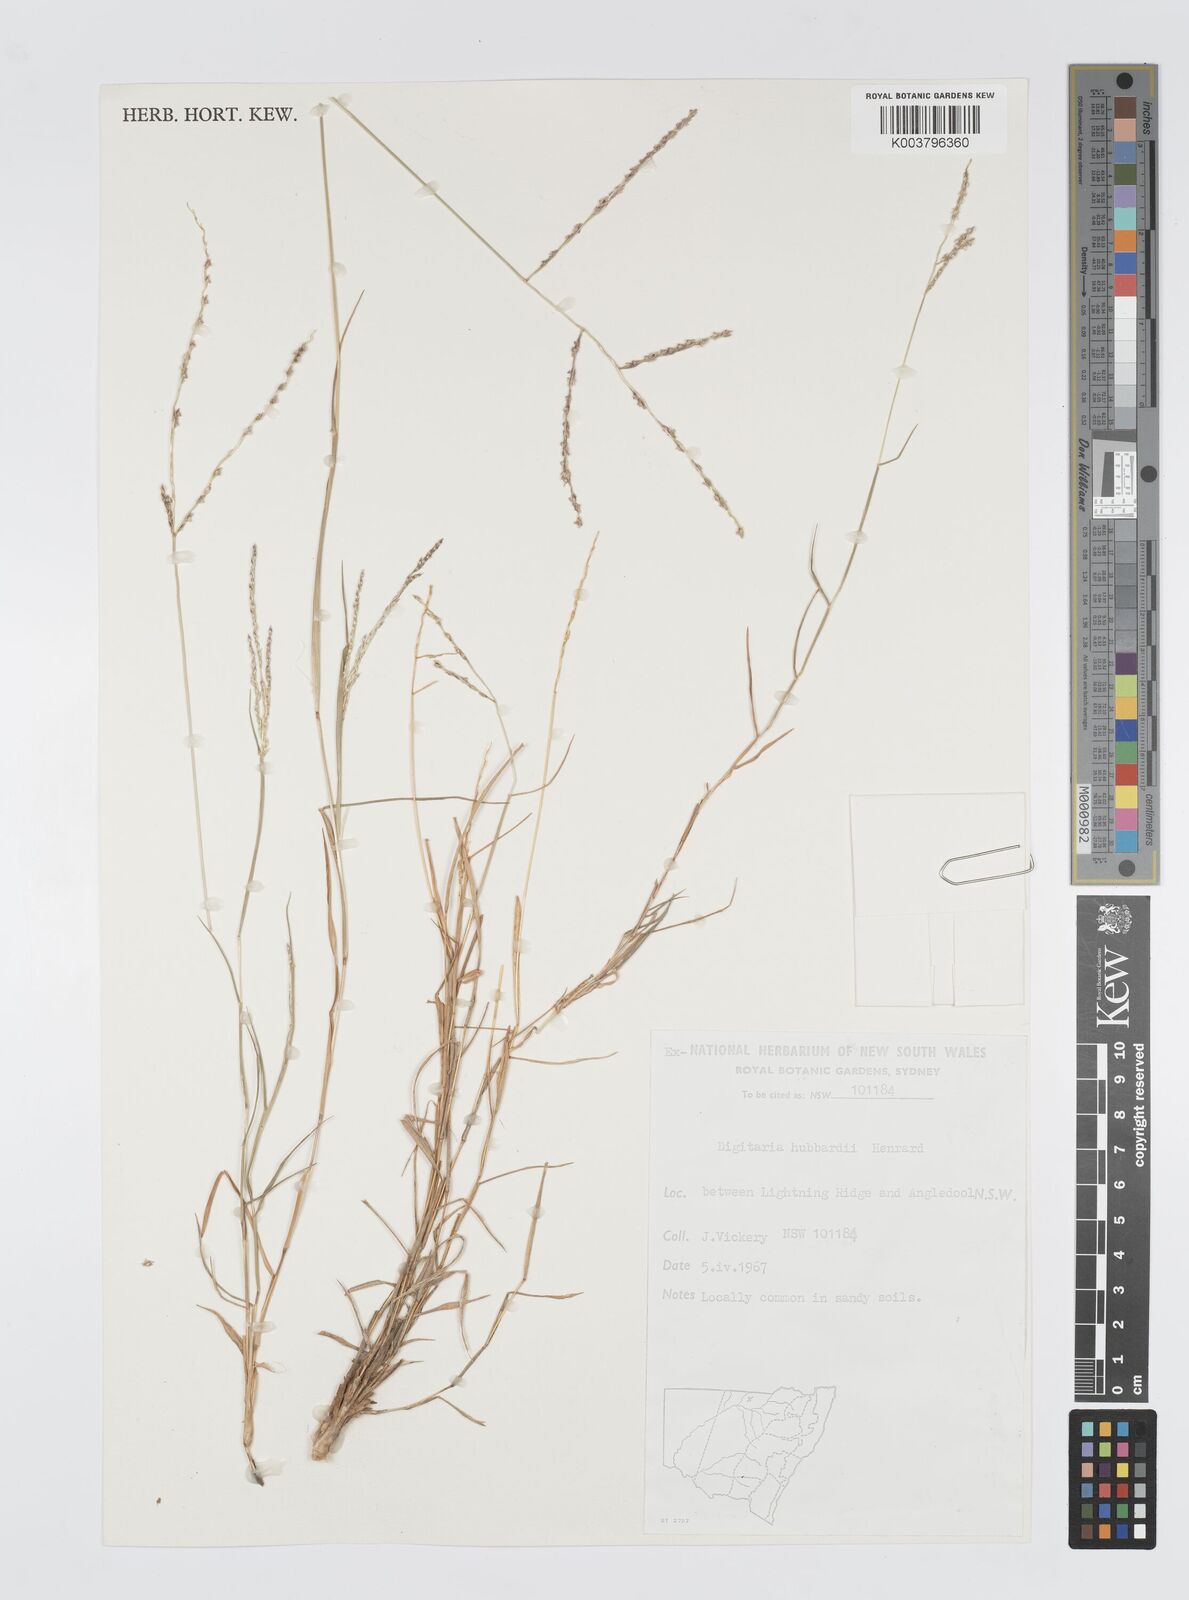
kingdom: Plantae
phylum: Tracheophyta
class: Liliopsida
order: Poales
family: Poaceae
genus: Digitaria
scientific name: Digitaria hubbardii
